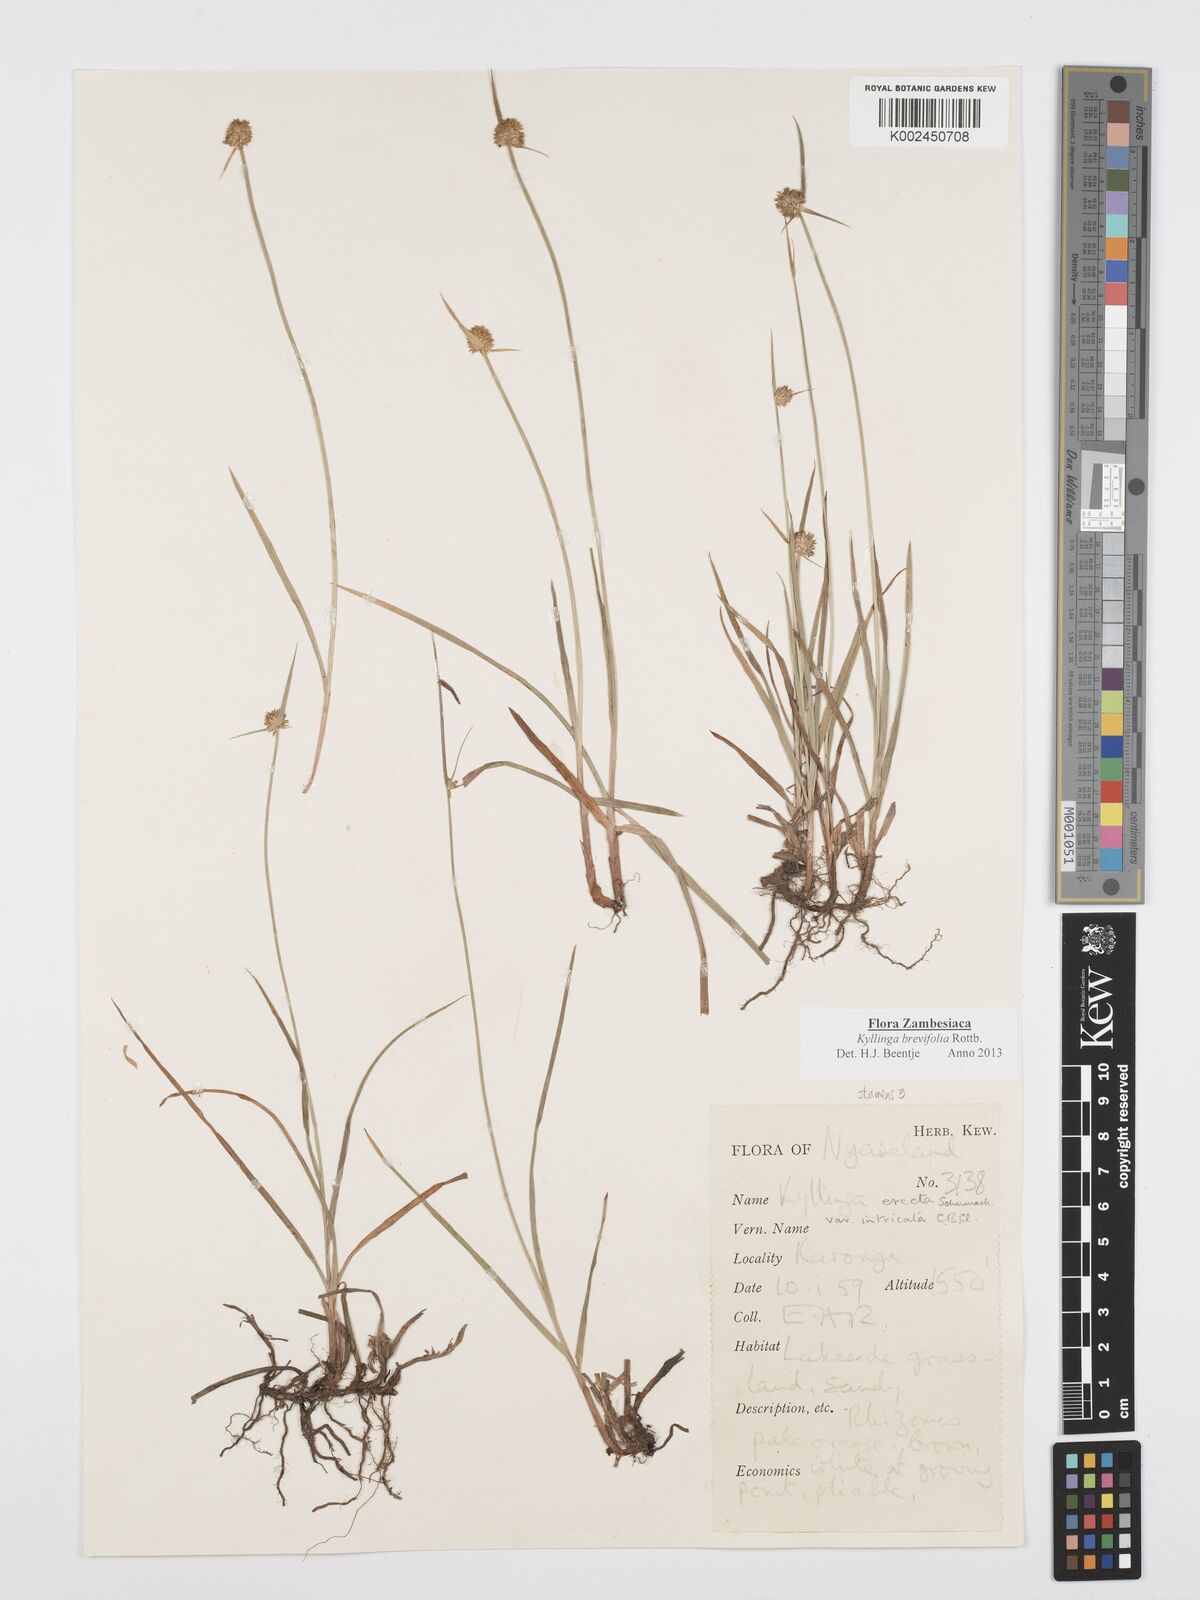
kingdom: Plantae
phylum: Tracheophyta
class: Liliopsida
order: Poales
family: Cyperaceae
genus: Cyperus
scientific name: Cyperus brevifolius
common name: Globe kyllinga
